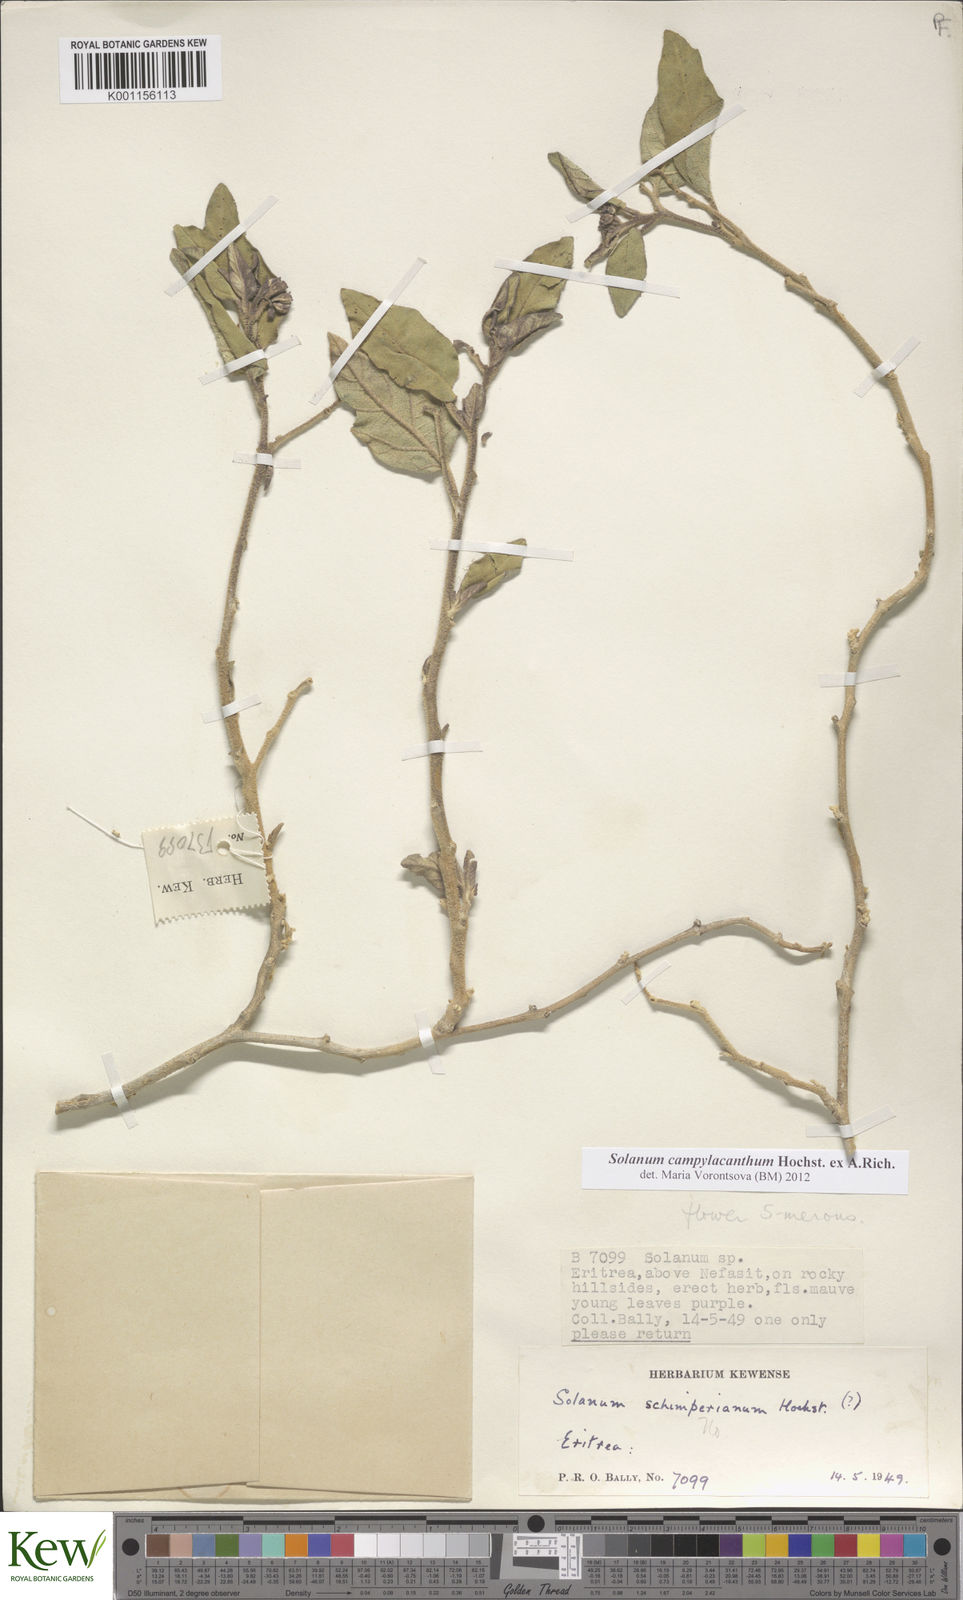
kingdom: Plantae
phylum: Tracheophyta
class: Magnoliopsida
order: Solanales
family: Solanaceae
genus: Solanum
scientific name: Solanum campylacanthum
